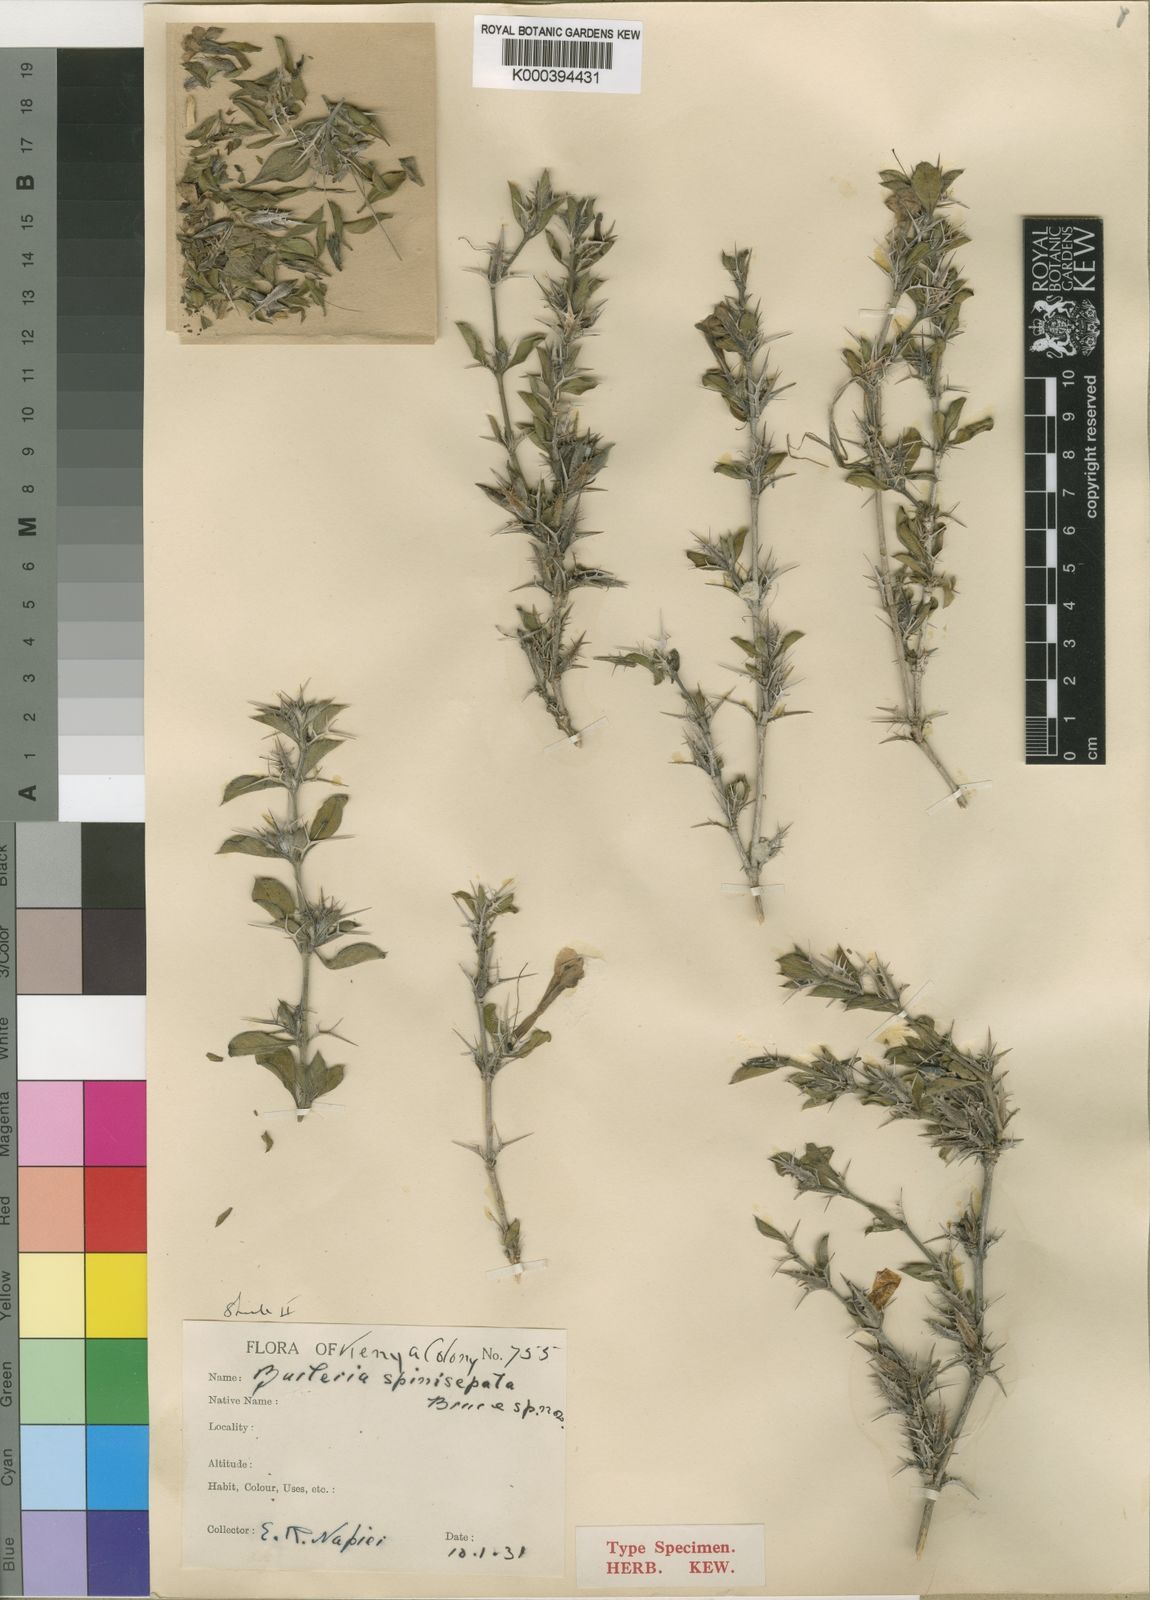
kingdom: Plantae
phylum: Tracheophyta
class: Magnoliopsida
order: Lamiales
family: Acanthaceae
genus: Barleria
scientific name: Barleria delamerei
